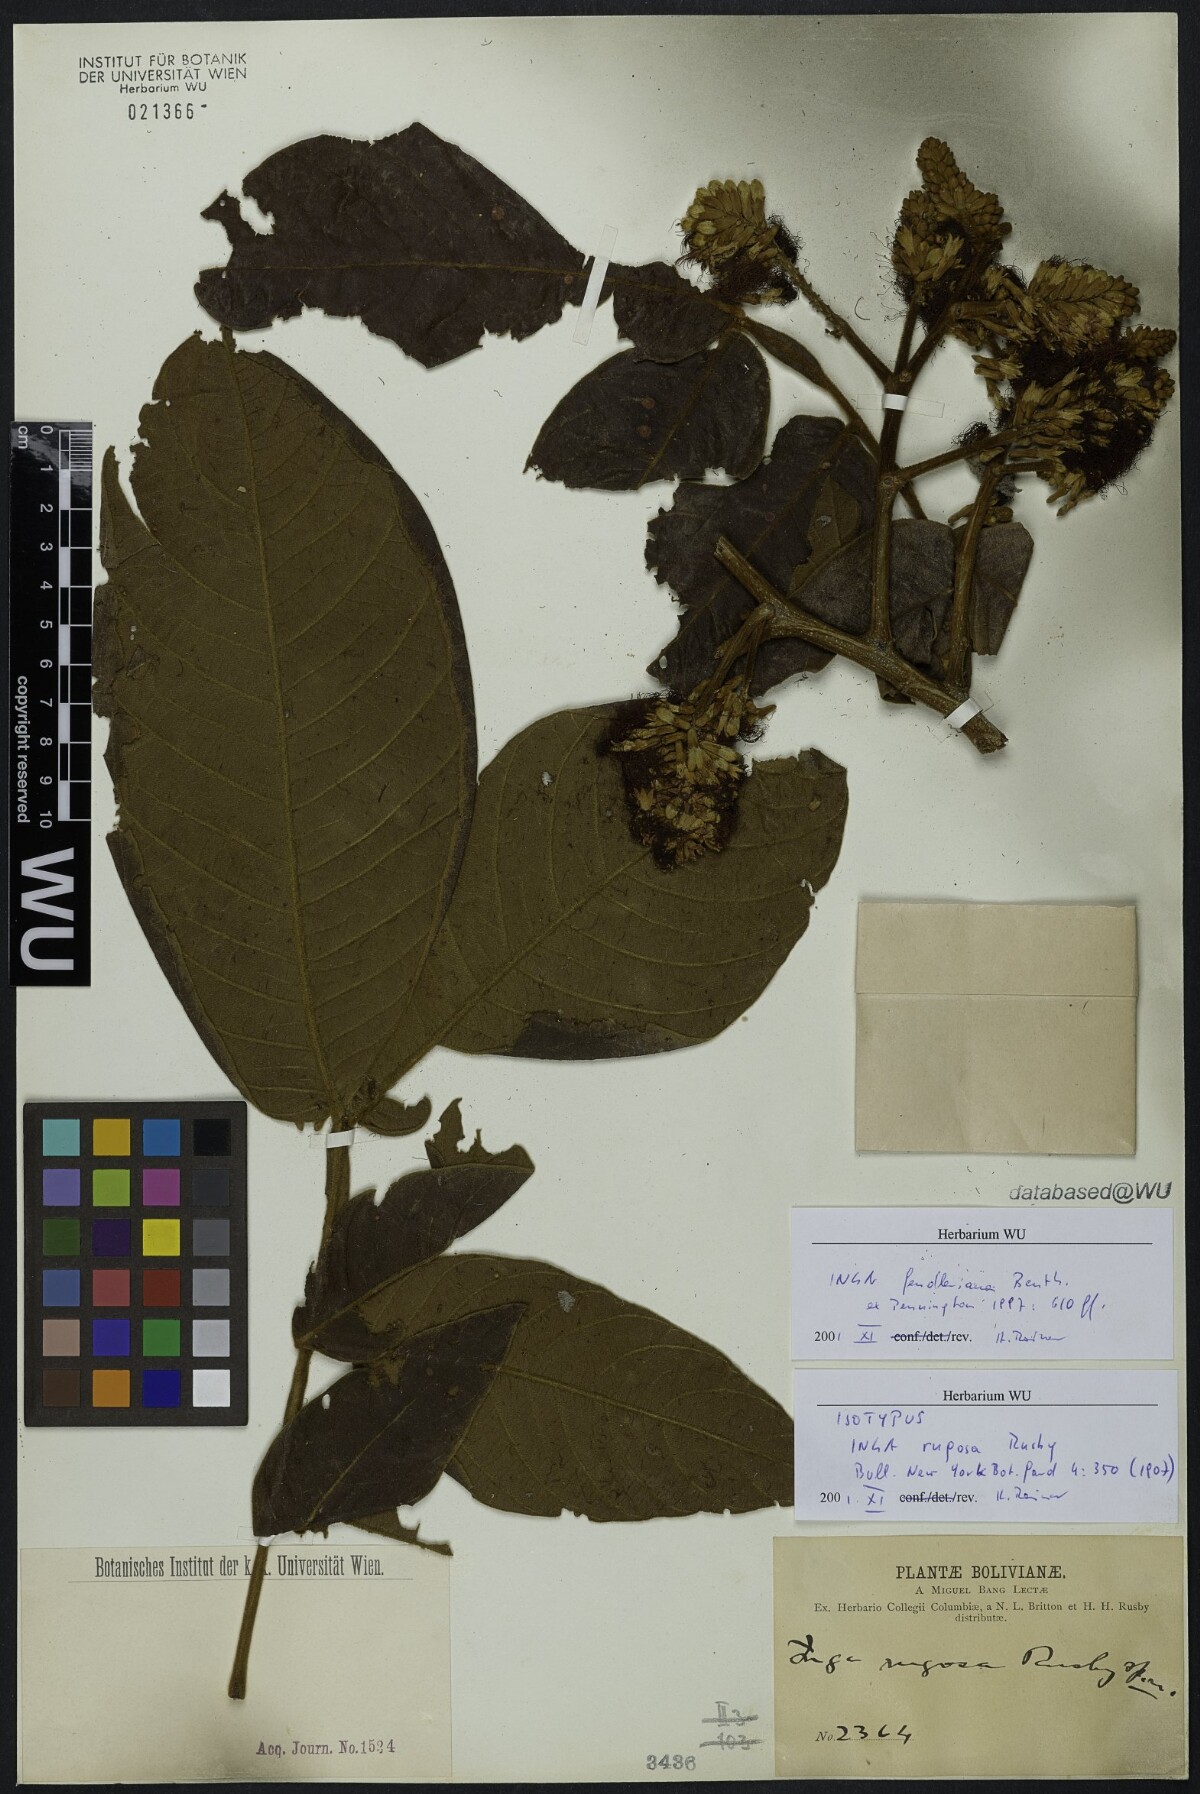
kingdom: Plantae
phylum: Tracheophyta
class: Magnoliopsida
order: Fabales
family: Fabaceae
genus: Inga
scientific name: Inga fendleriana
